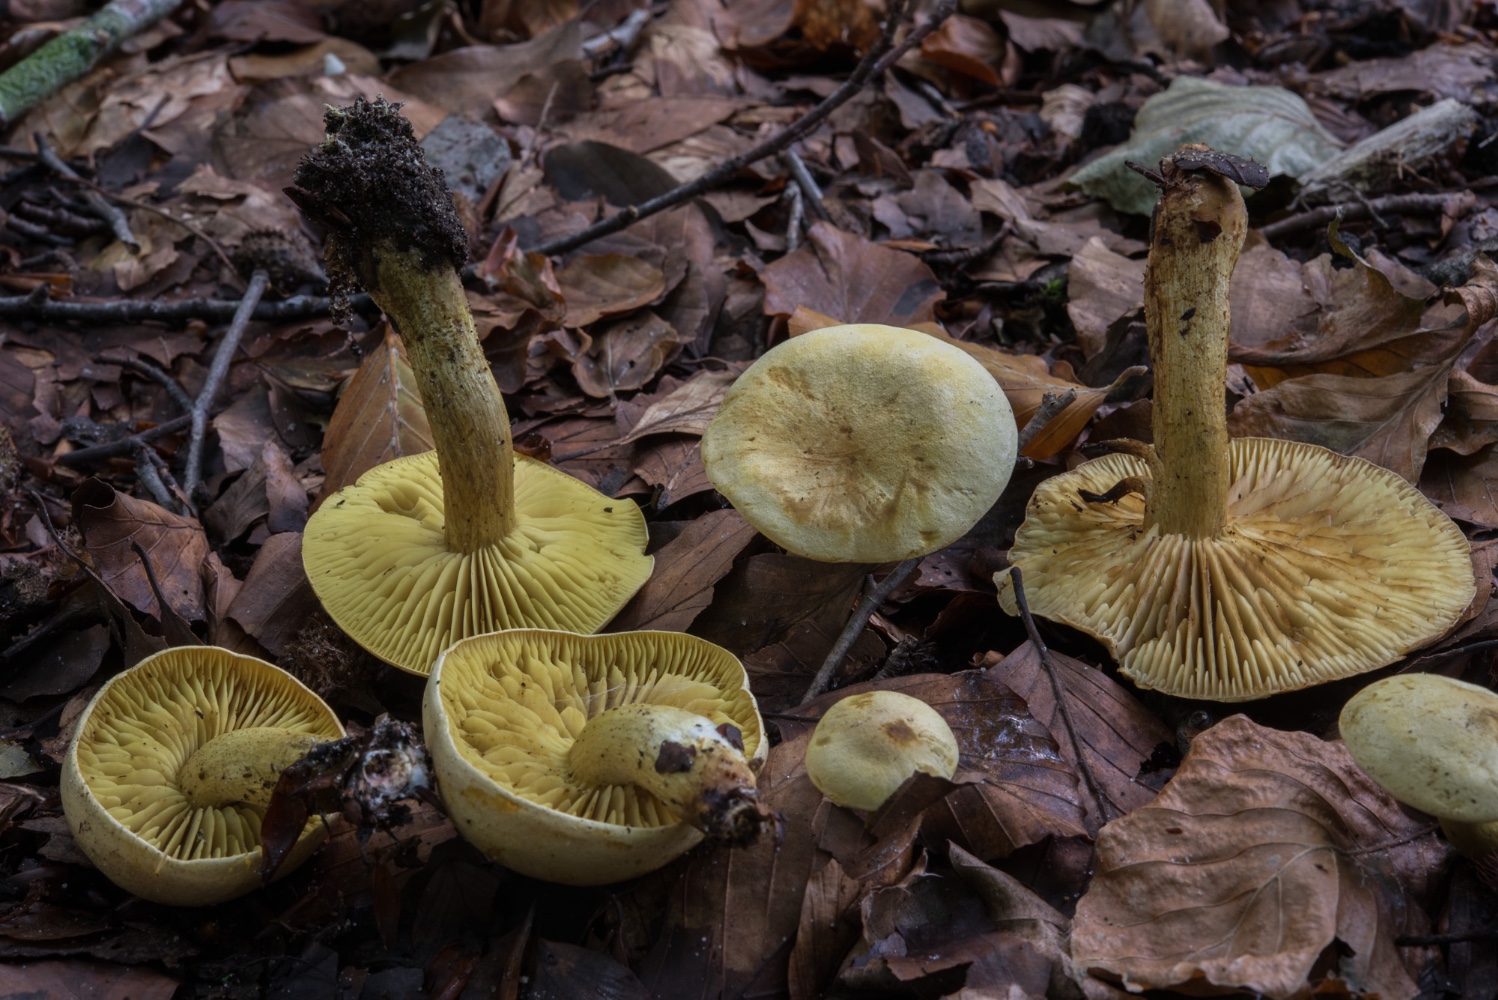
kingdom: Fungi
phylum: Basidiomycota
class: Agaricomycetes
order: Agaricales
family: Tricholomataceae
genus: Tricholoma
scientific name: Tricholoma sulphureum
